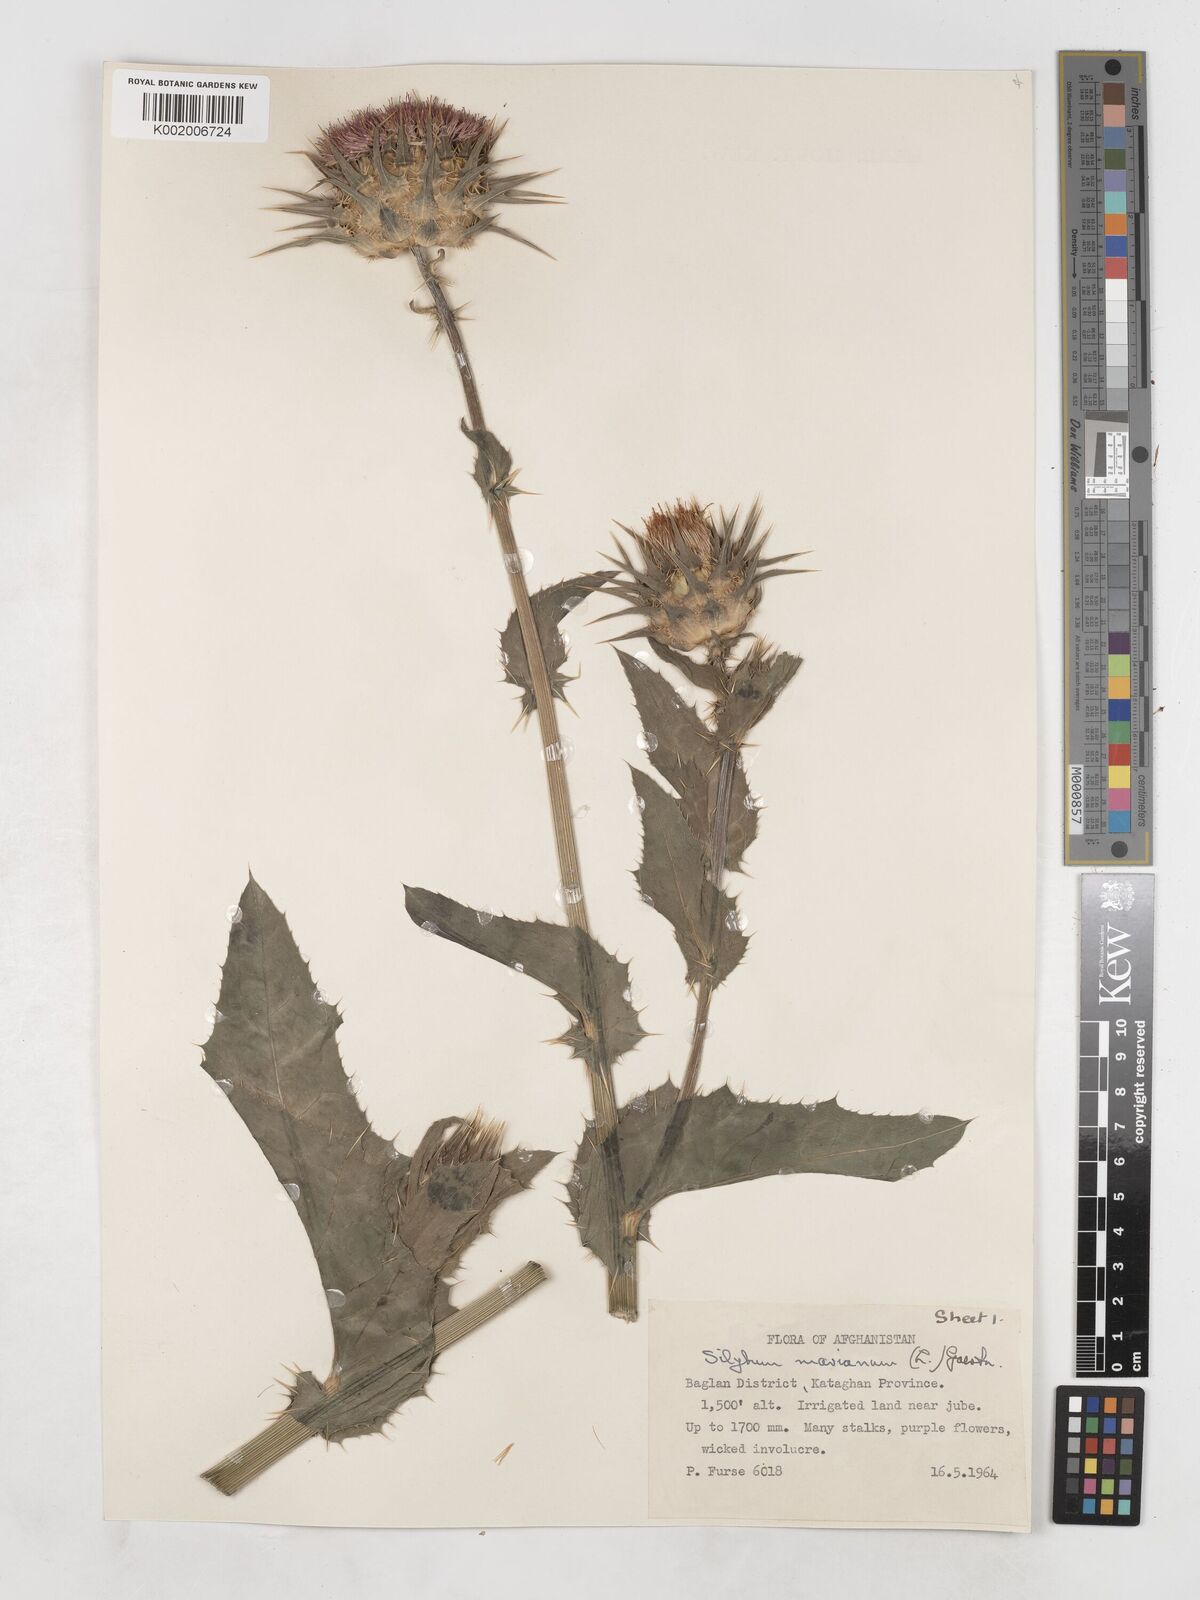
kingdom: Plantae
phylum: Tracheophyta
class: Magnoliopsida
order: Asterales
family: Asteraceae
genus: Silybum
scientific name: Silybum marianum
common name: Milk thistle
